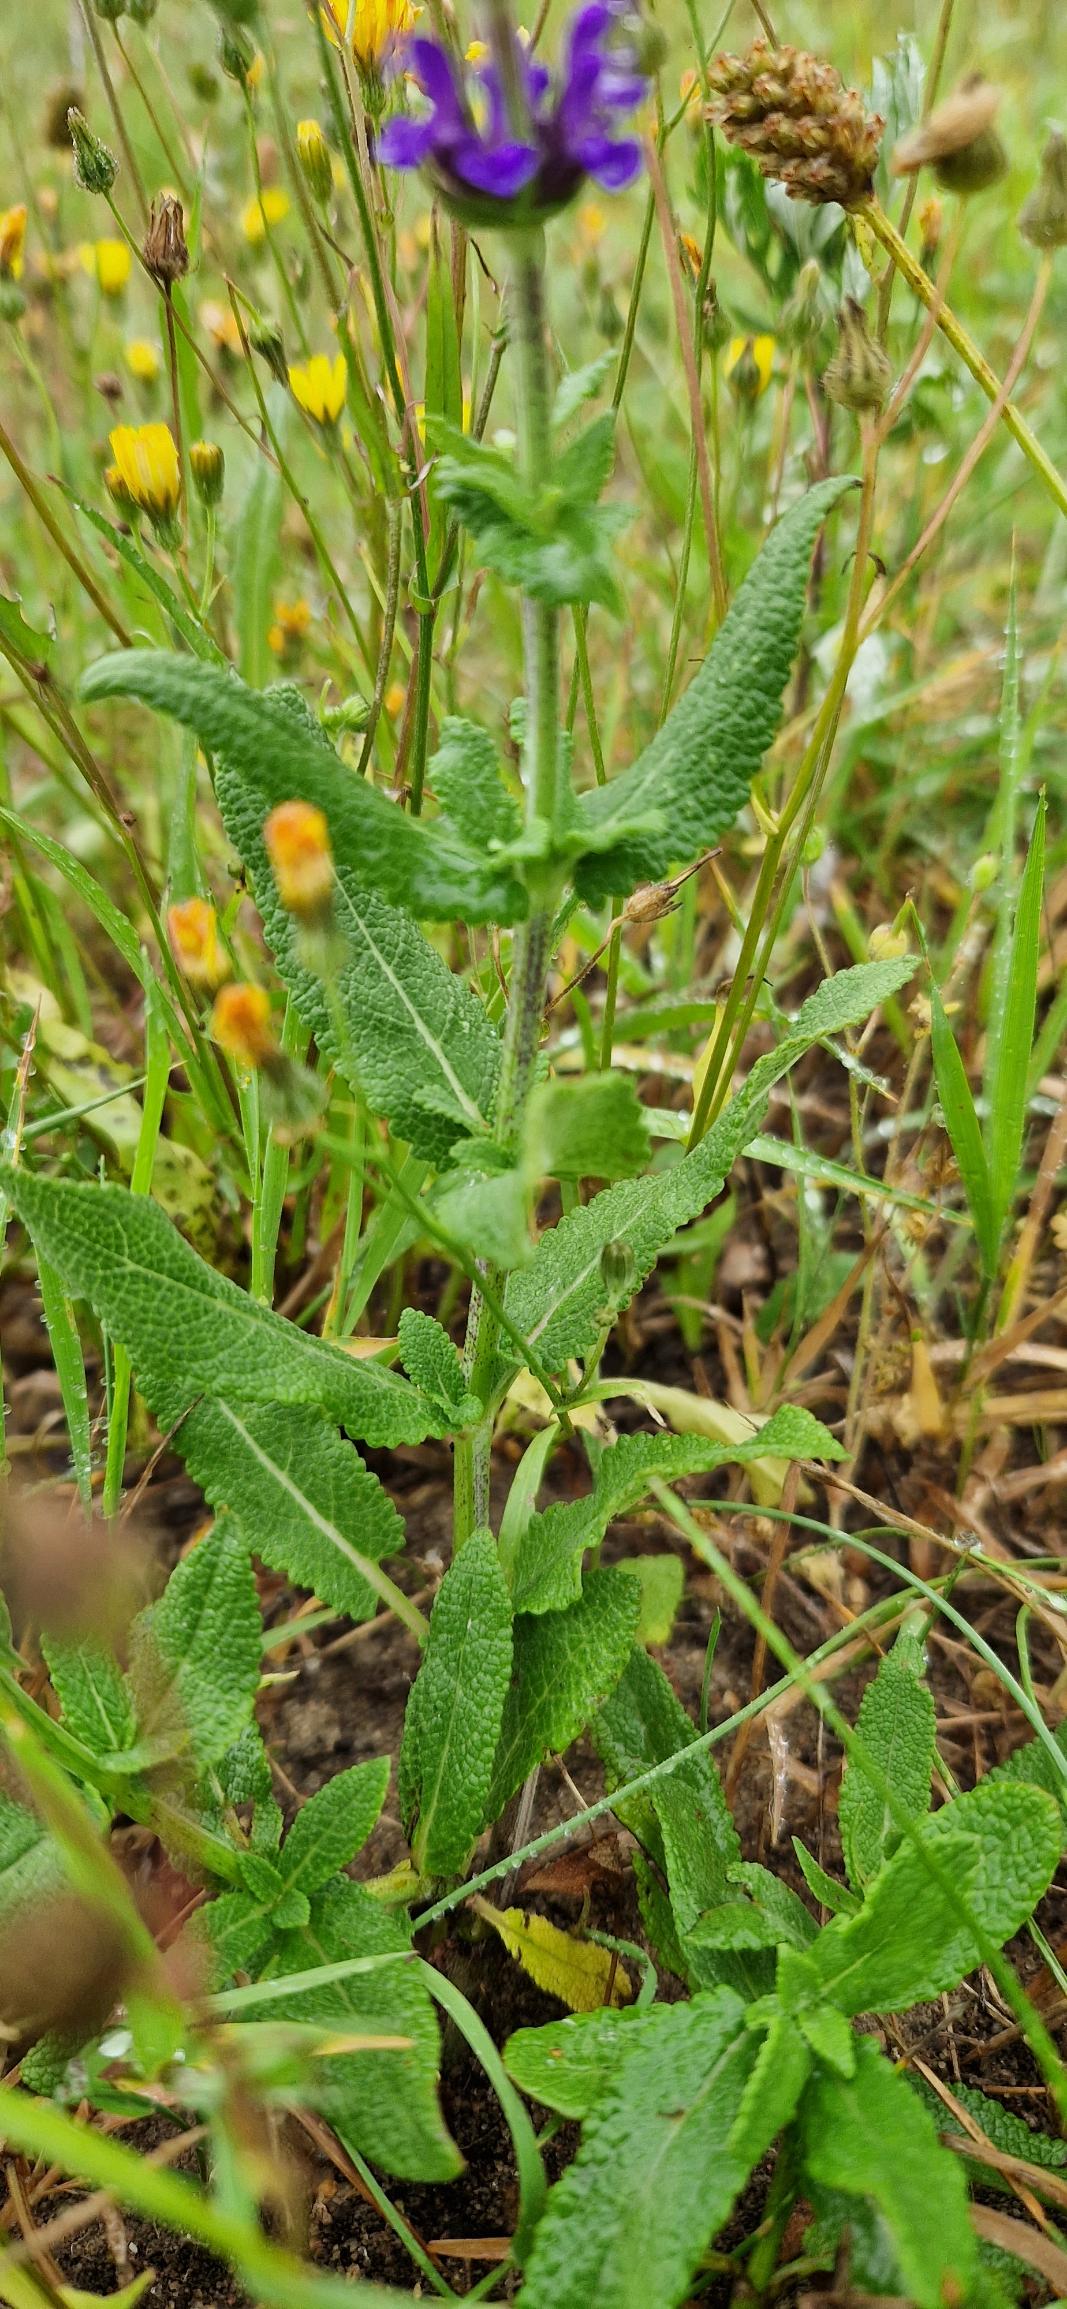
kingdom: Plantae
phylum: Tracheophyta
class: Magnoliopsida
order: Lamiales
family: Lamiaceae
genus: Salvia
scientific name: Salvia nemorosa
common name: Småblomstret salvie
